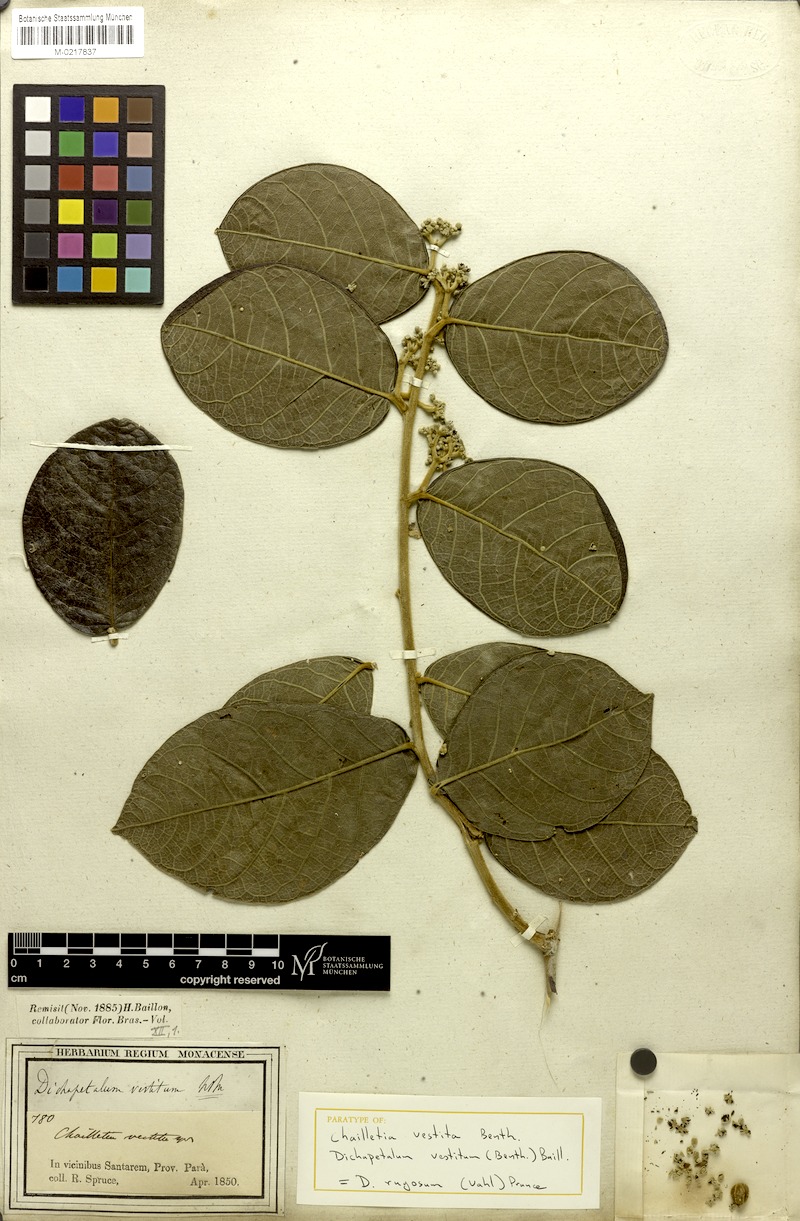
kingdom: Plantae
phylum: Tracheophyta
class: Magnoliopsida
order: Malpighiales
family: Dichapetalaceae
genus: Dichapetalum
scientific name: Dichapetalum rugosum
